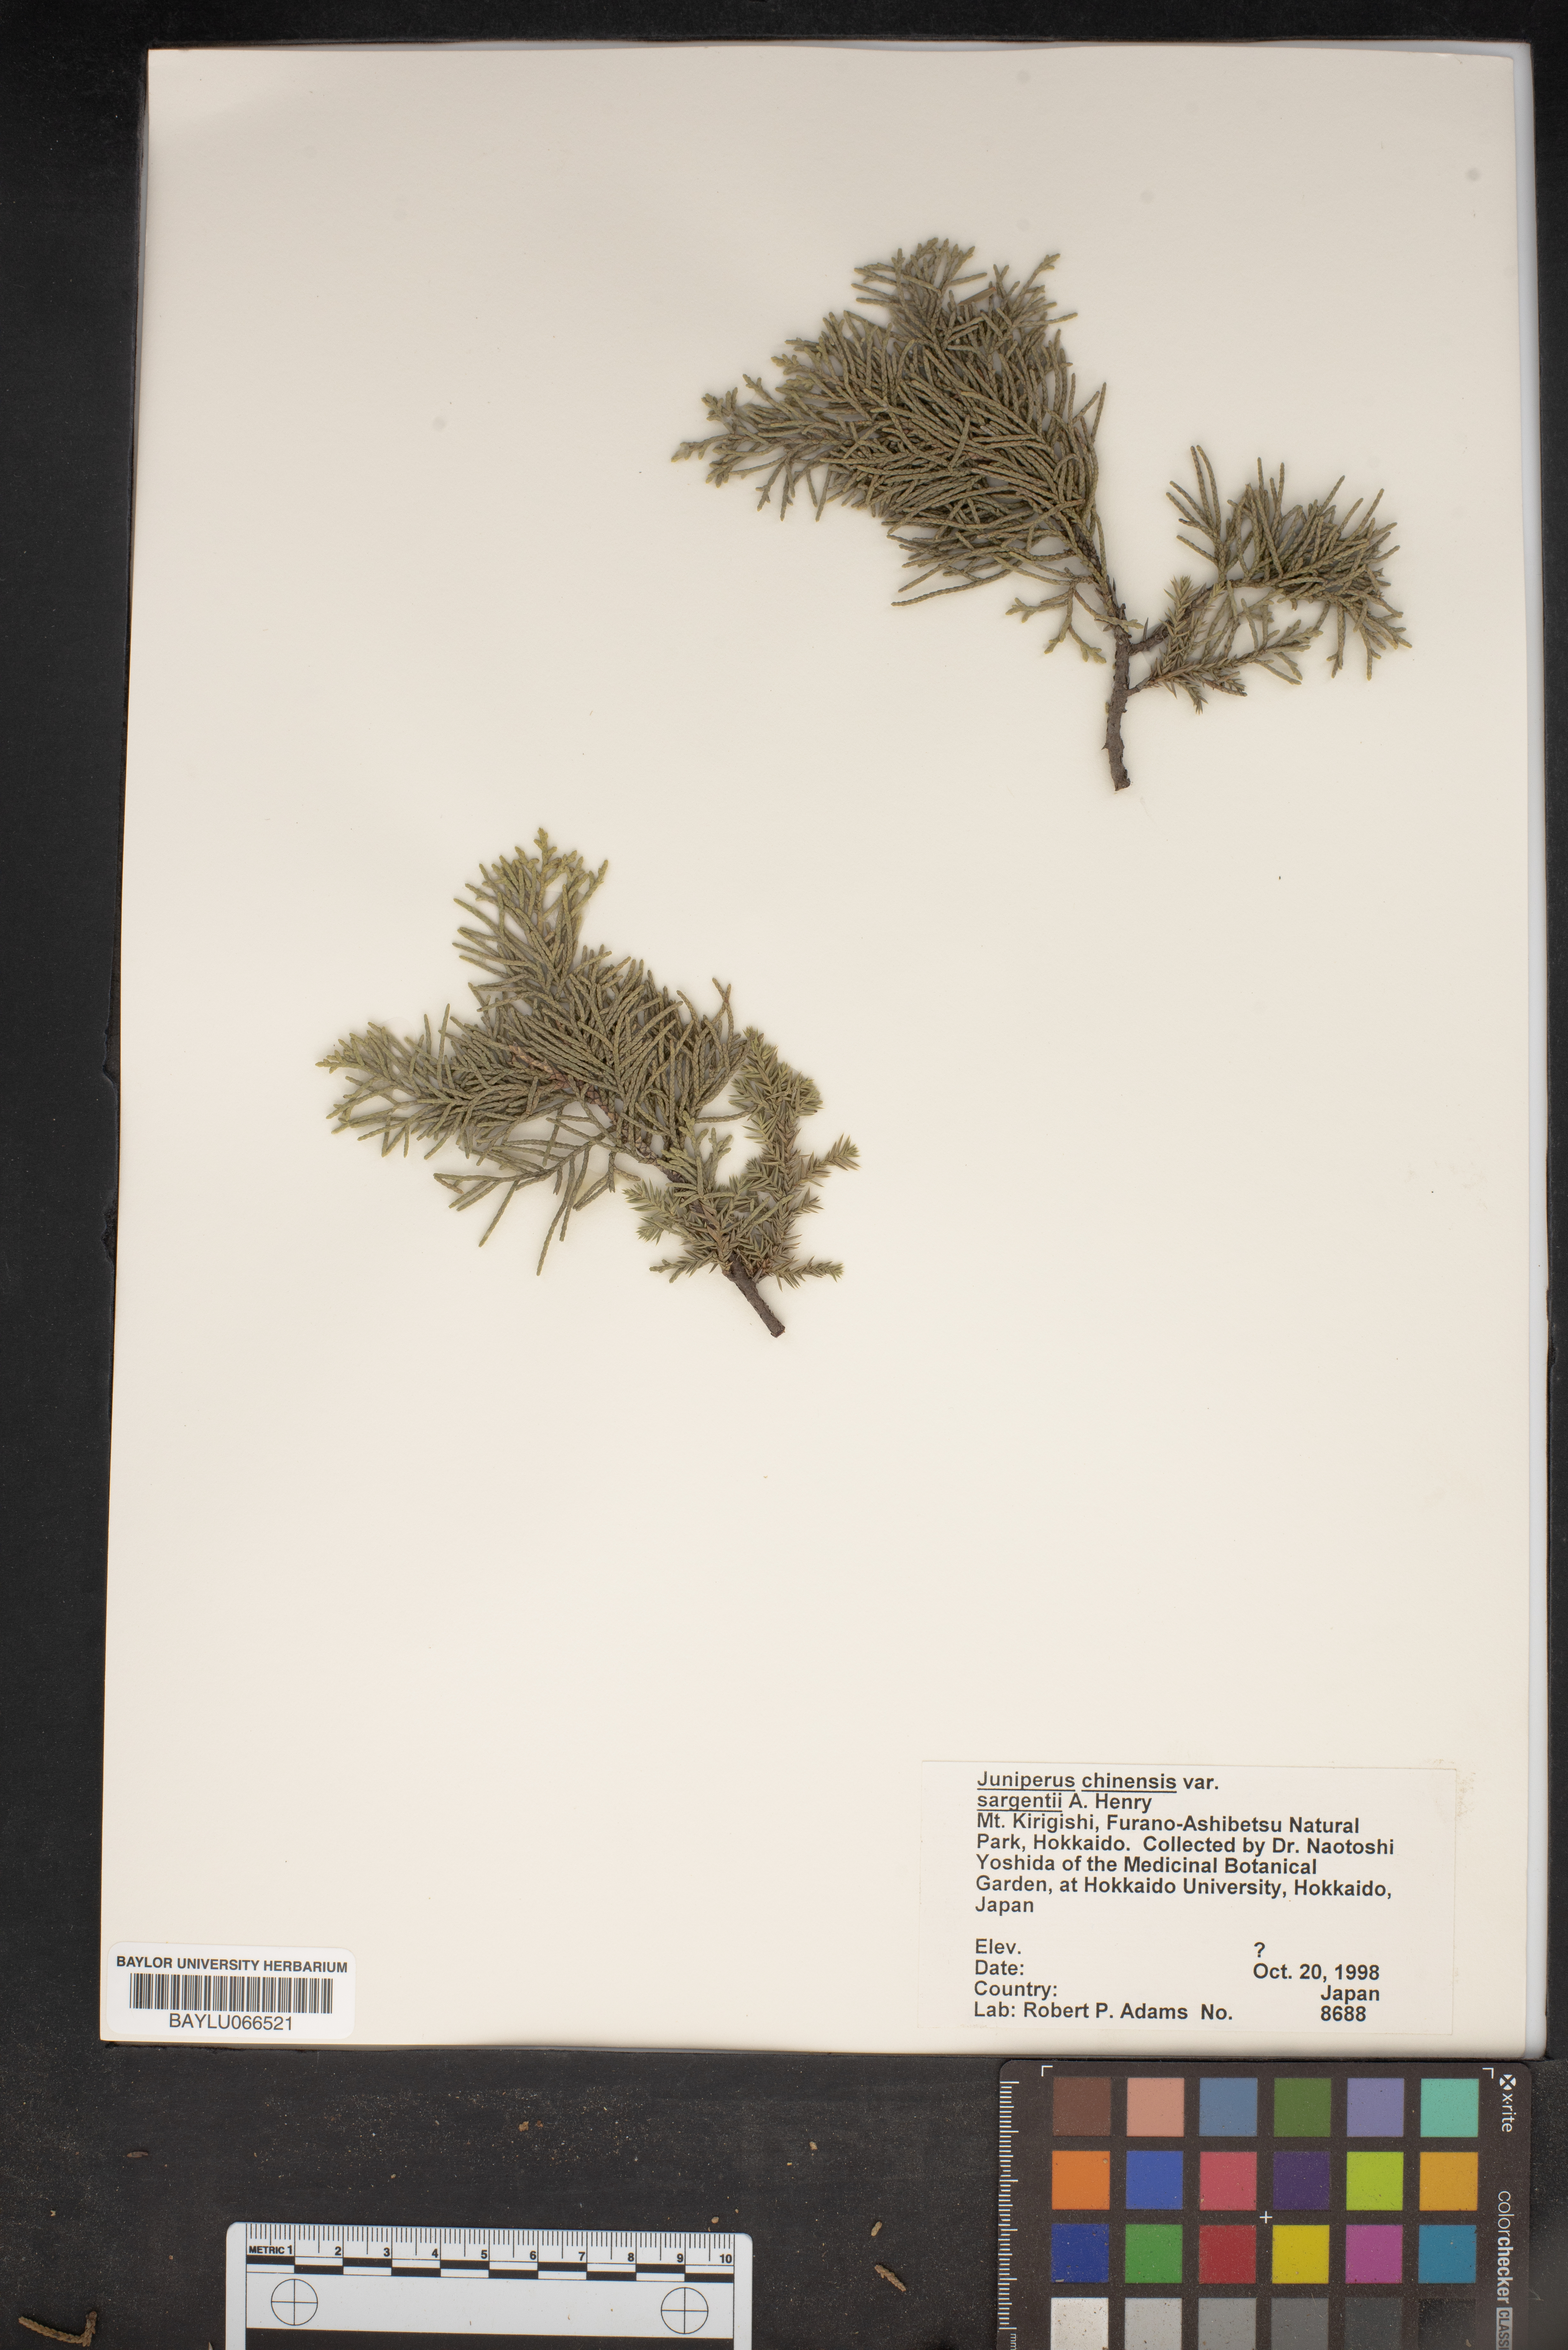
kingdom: Plantae
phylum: Tracheophyta
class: Pinopsida
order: Pinales
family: Cupressaceae
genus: Juniperus
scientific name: Juniperus chinensis
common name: Chinese juniper
